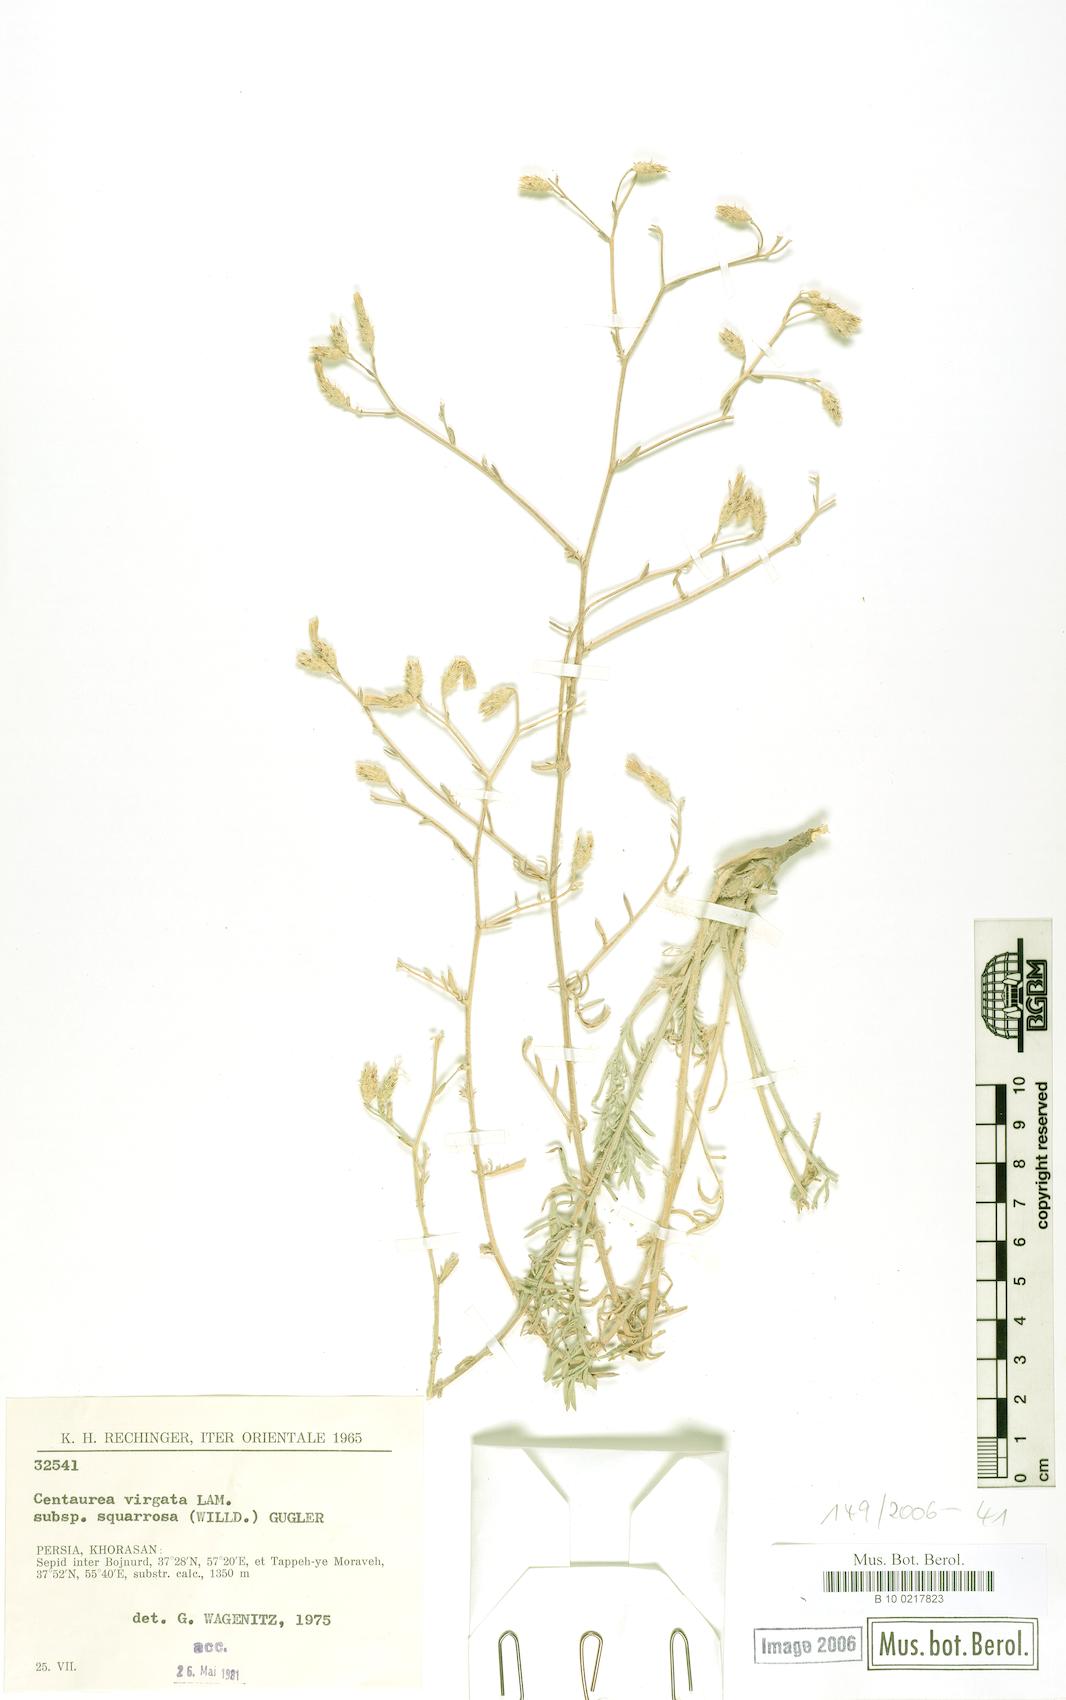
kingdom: Plantae
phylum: Tracheophyta
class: Magnoliopsida
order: Asterales
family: Asteraceae
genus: Centaurea
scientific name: Centaurea virgata
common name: Squarrose knapweed
